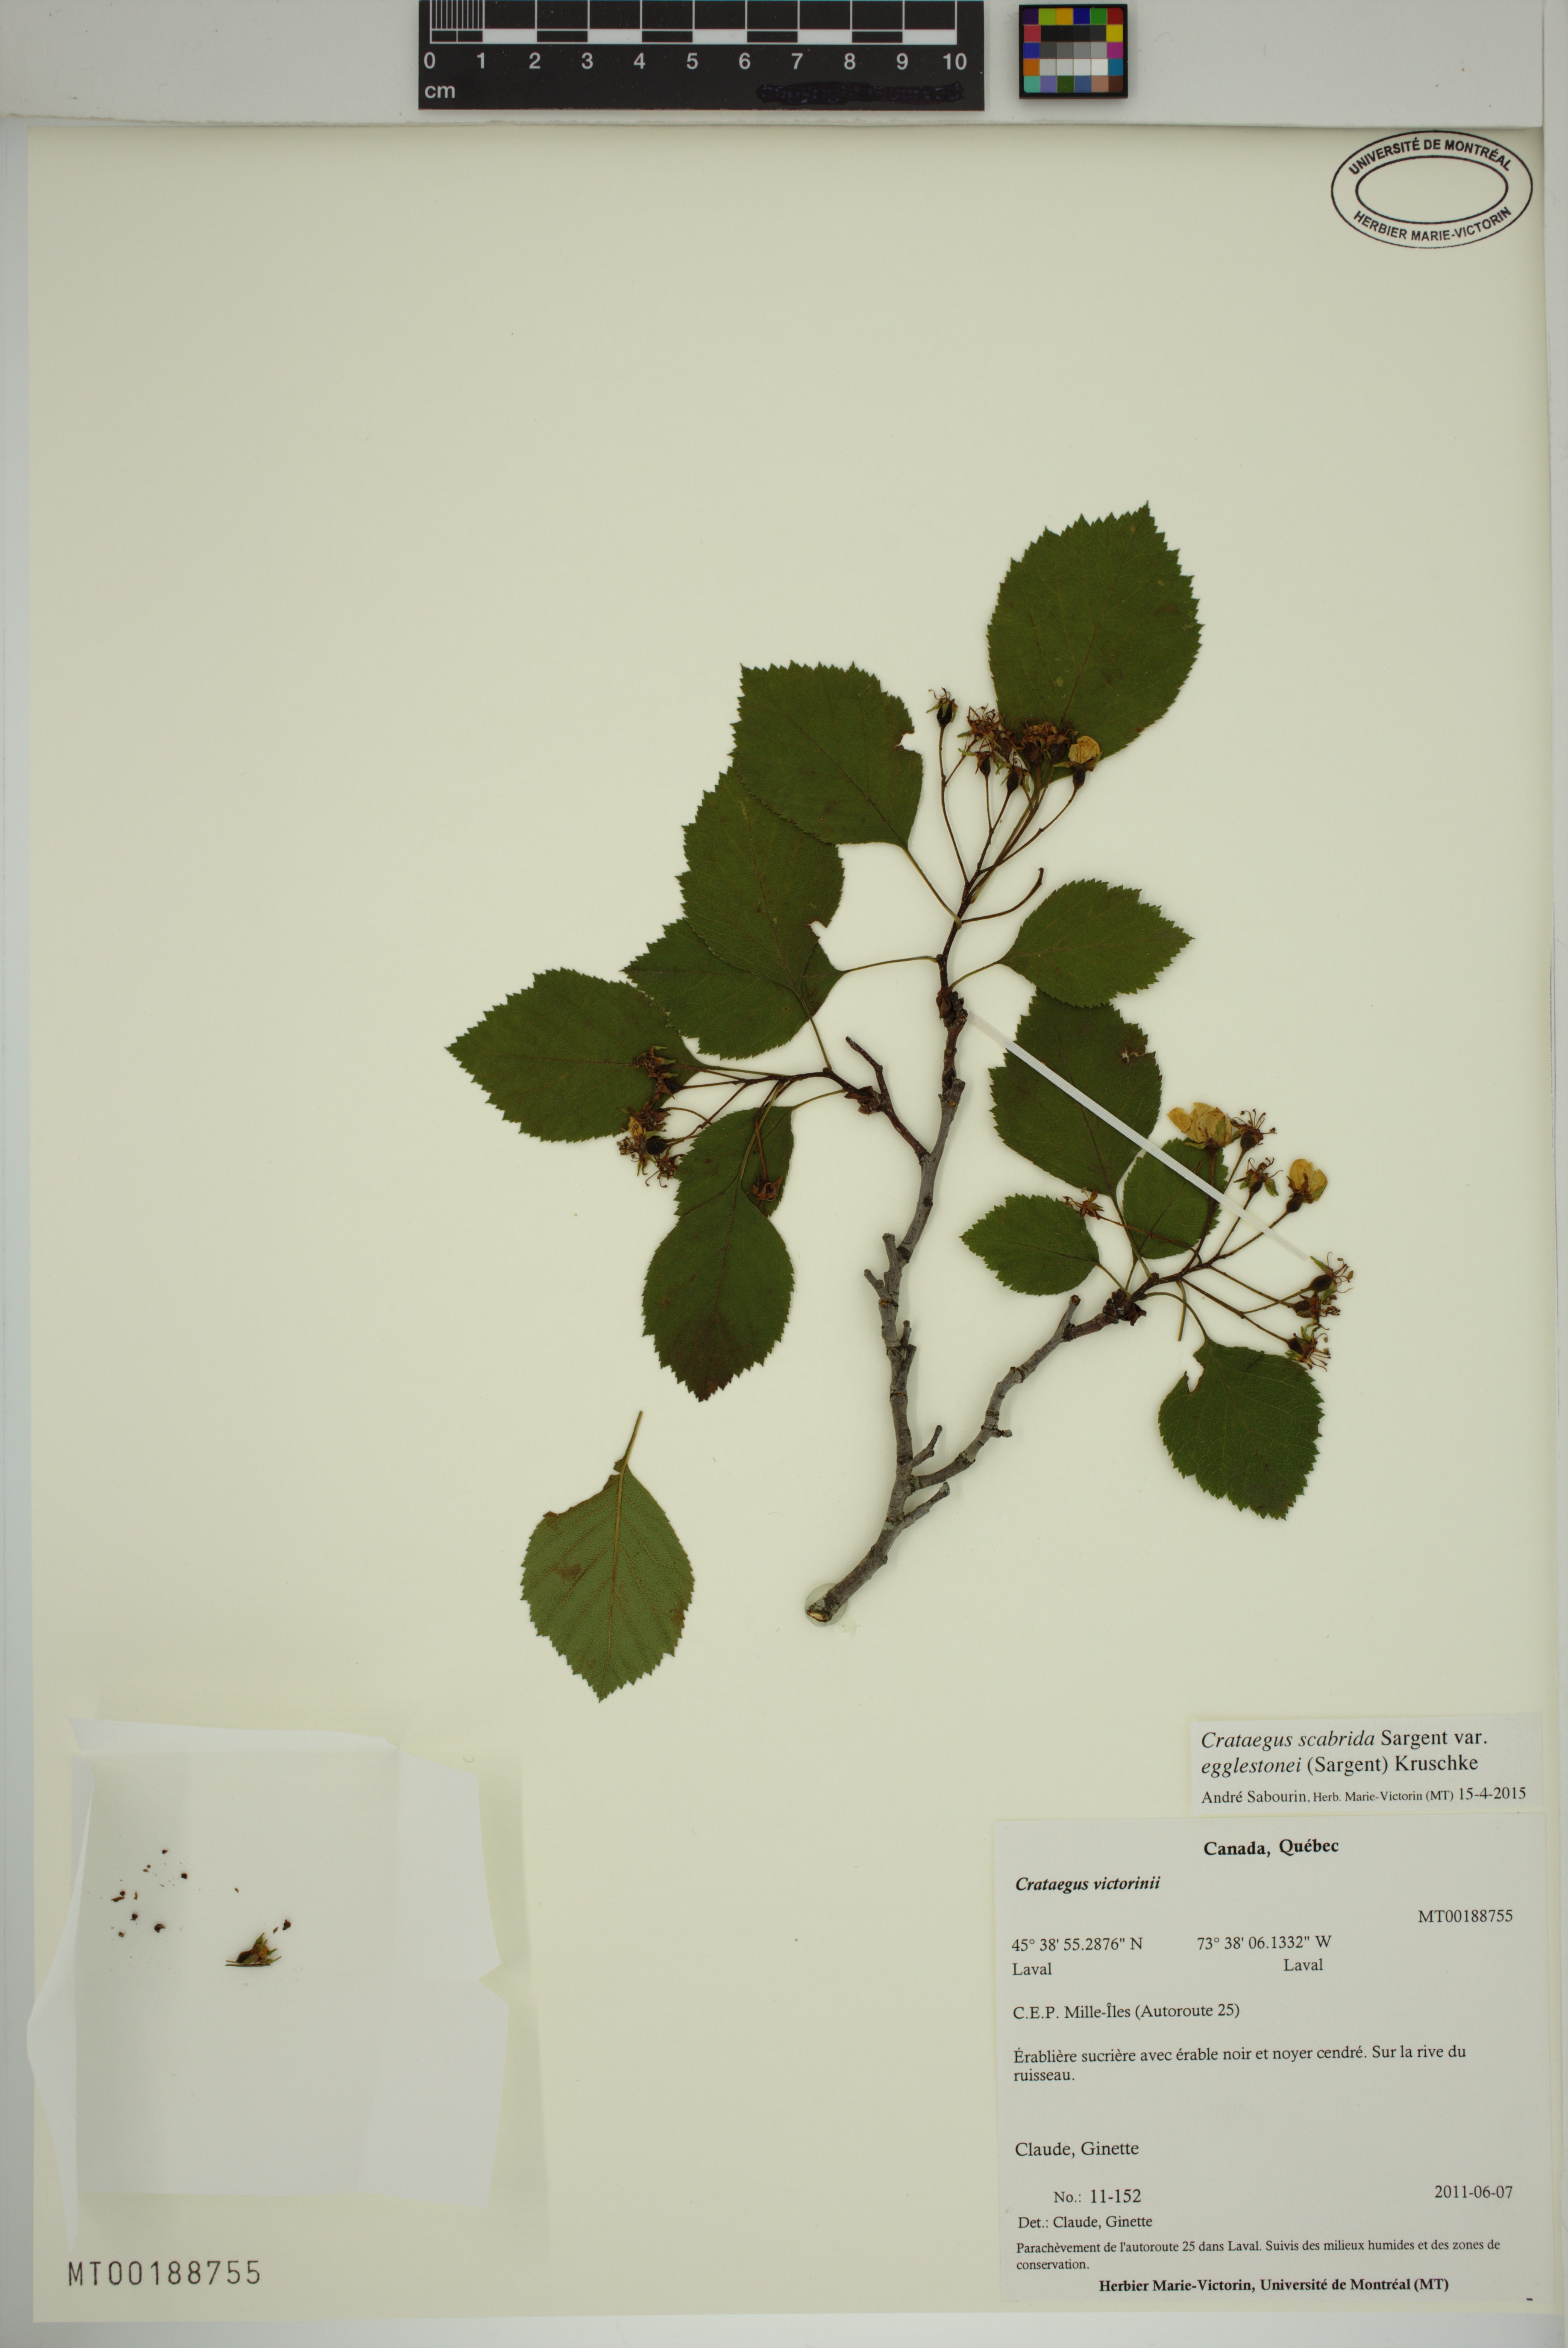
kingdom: Plantae
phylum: Tracheophyta
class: Magnoliopsida
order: Rosales
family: Rosaceae
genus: Crataegus
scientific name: Crataegus scabrida
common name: Rough hawthorn
